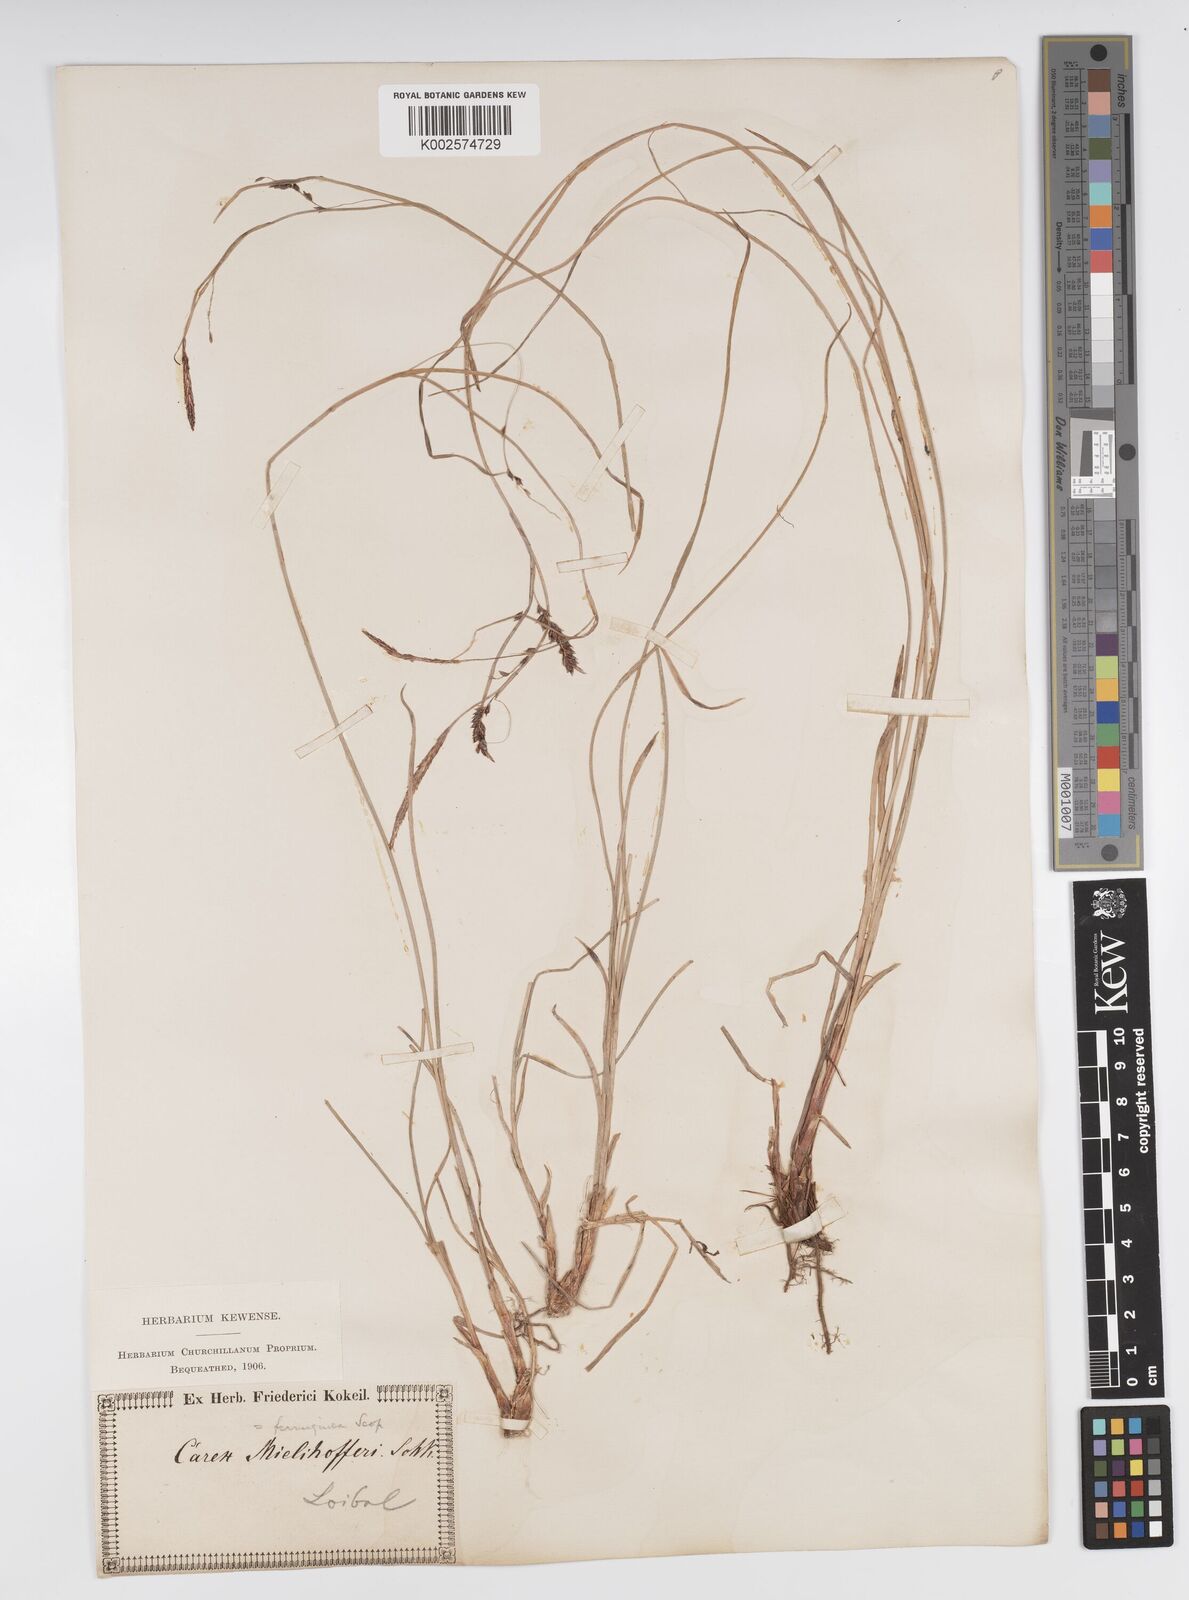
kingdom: Plantae
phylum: Tracheophyta
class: Liliopsida
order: Poales
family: Cyperaceae
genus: Carex
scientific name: Carex ferruginea
